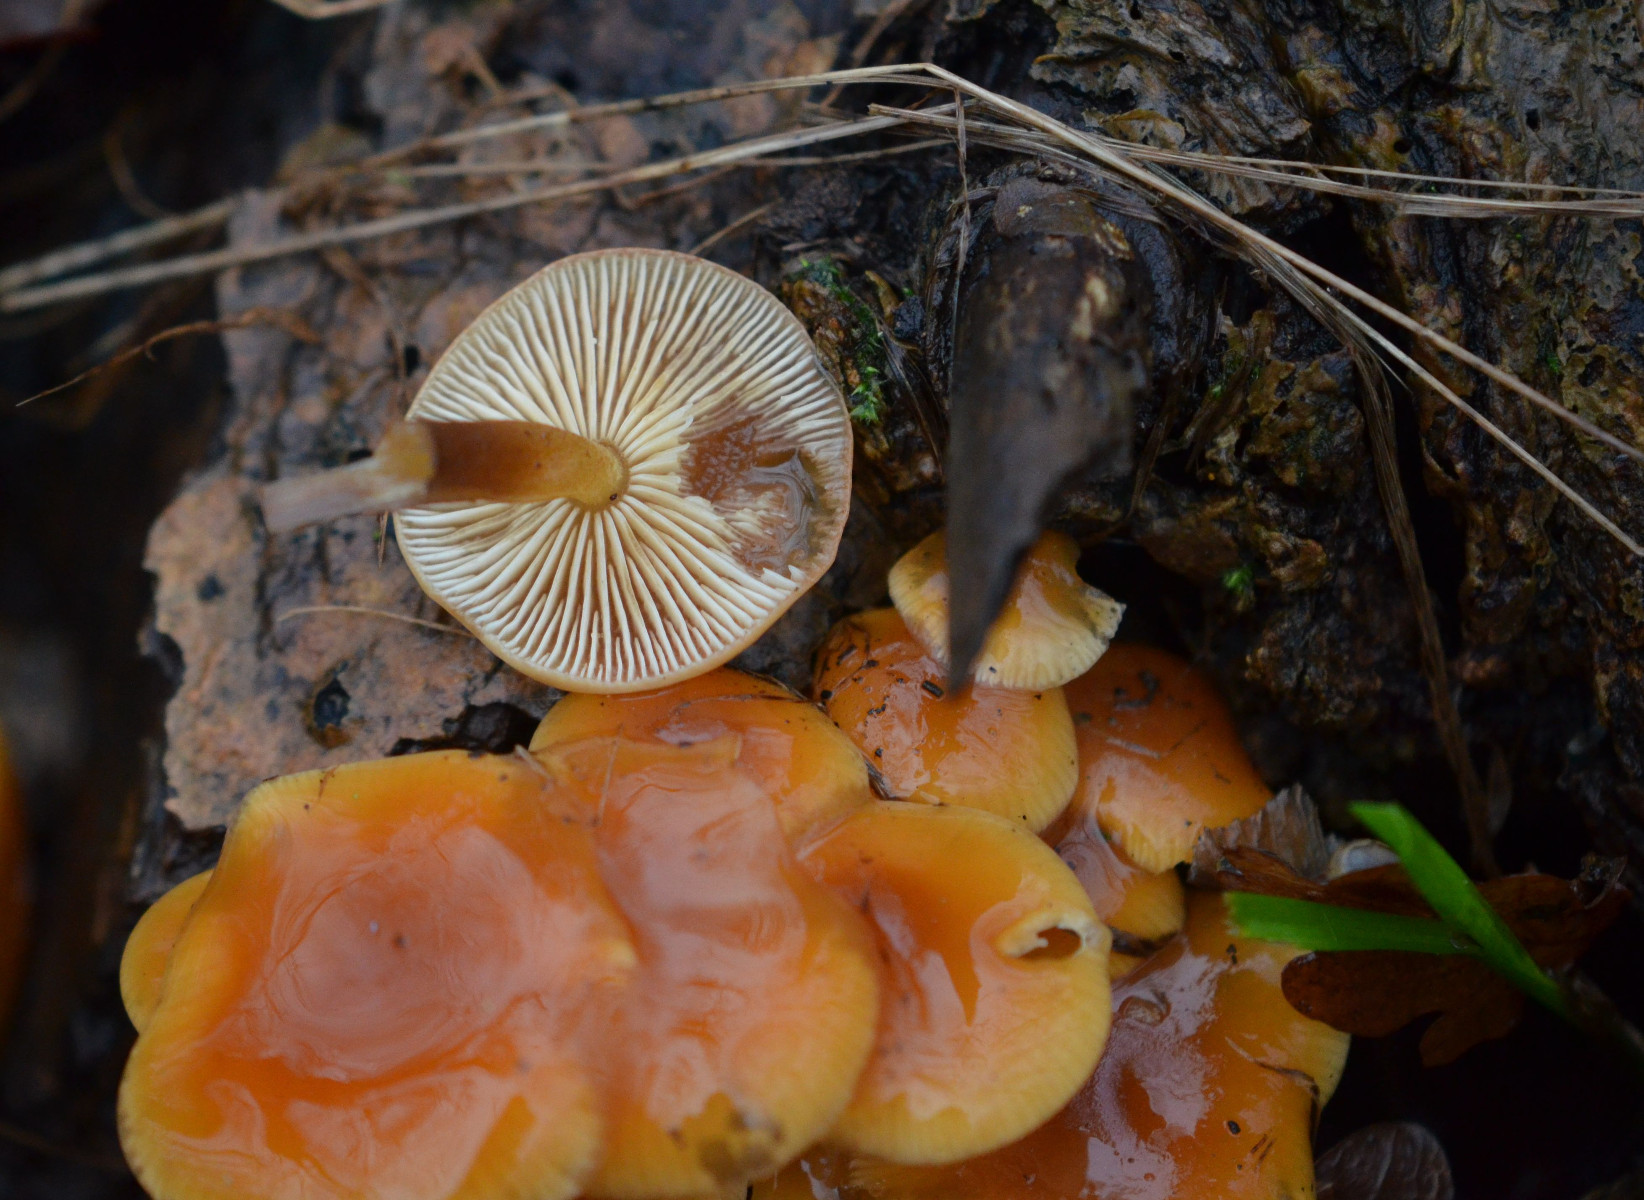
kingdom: Fungi
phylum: Basidiomycota
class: Agaricomycetes
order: Agaricales
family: Physalacriaceae
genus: Flammulina
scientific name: Flammulina
